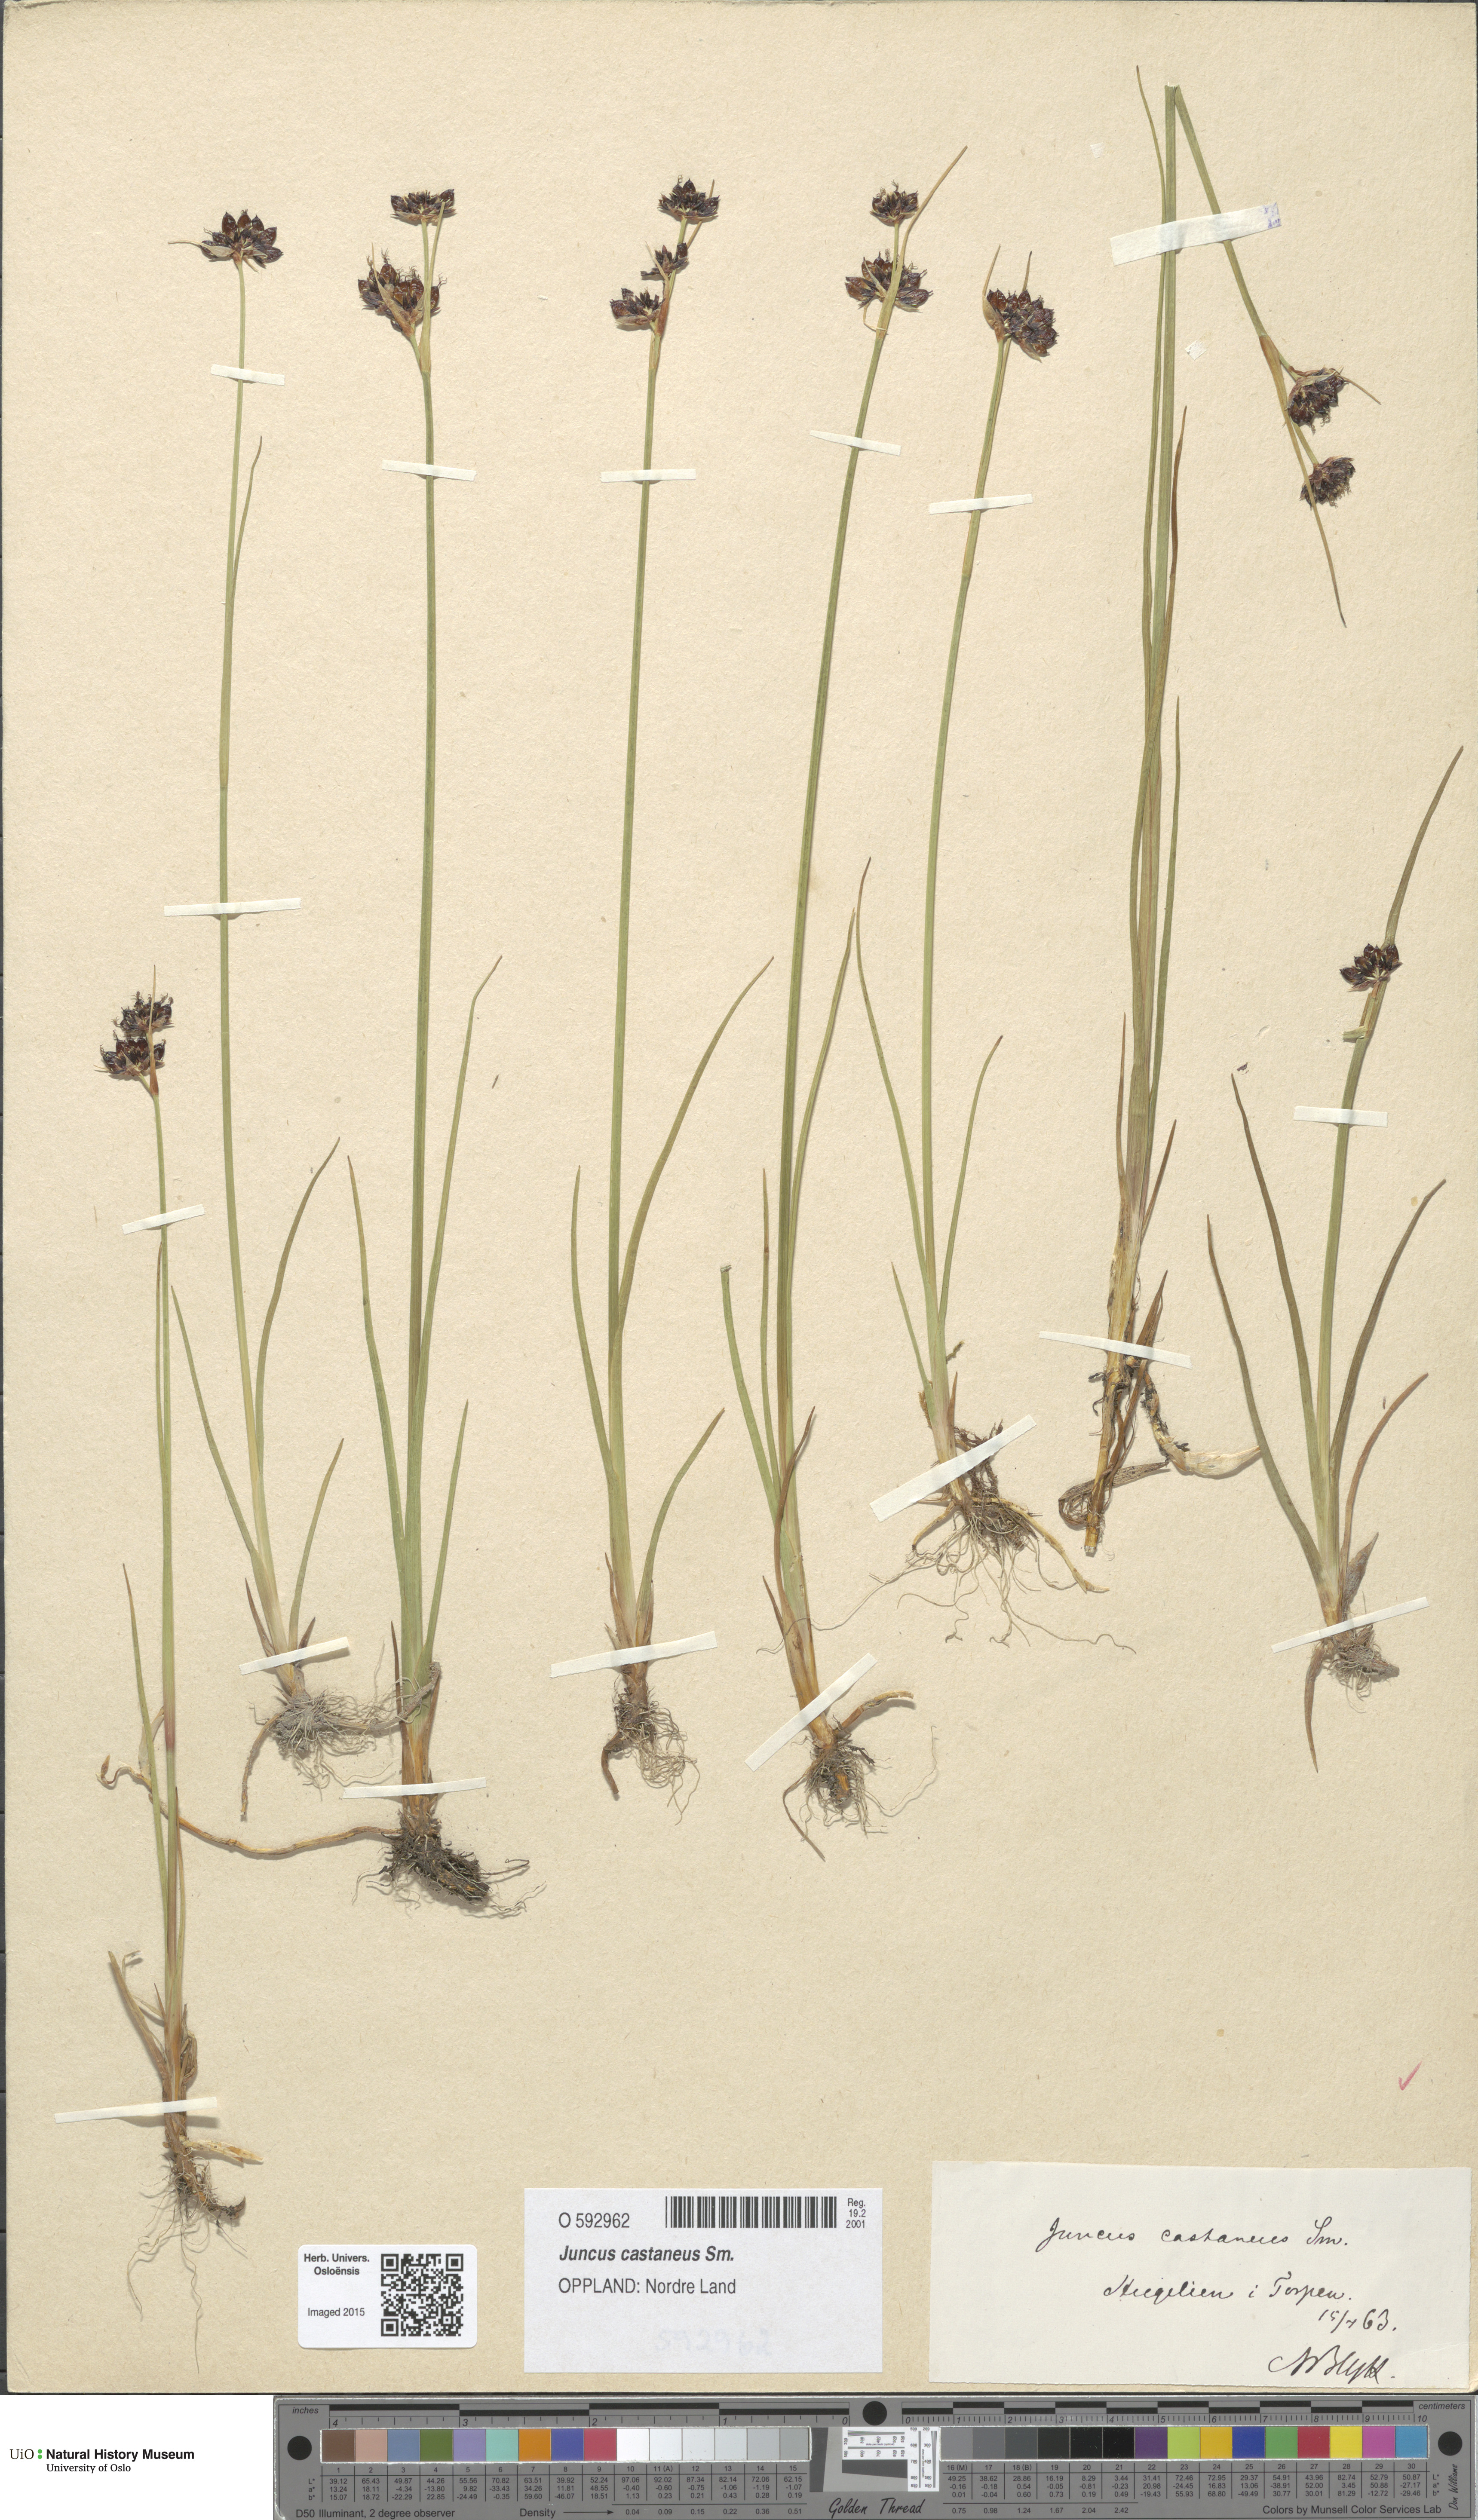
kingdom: Plantae
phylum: Tracheophyta
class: Liliopsida
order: Poales
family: Juncaceae
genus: Juncus
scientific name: Juncus castaneus
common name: Chestnut rush
